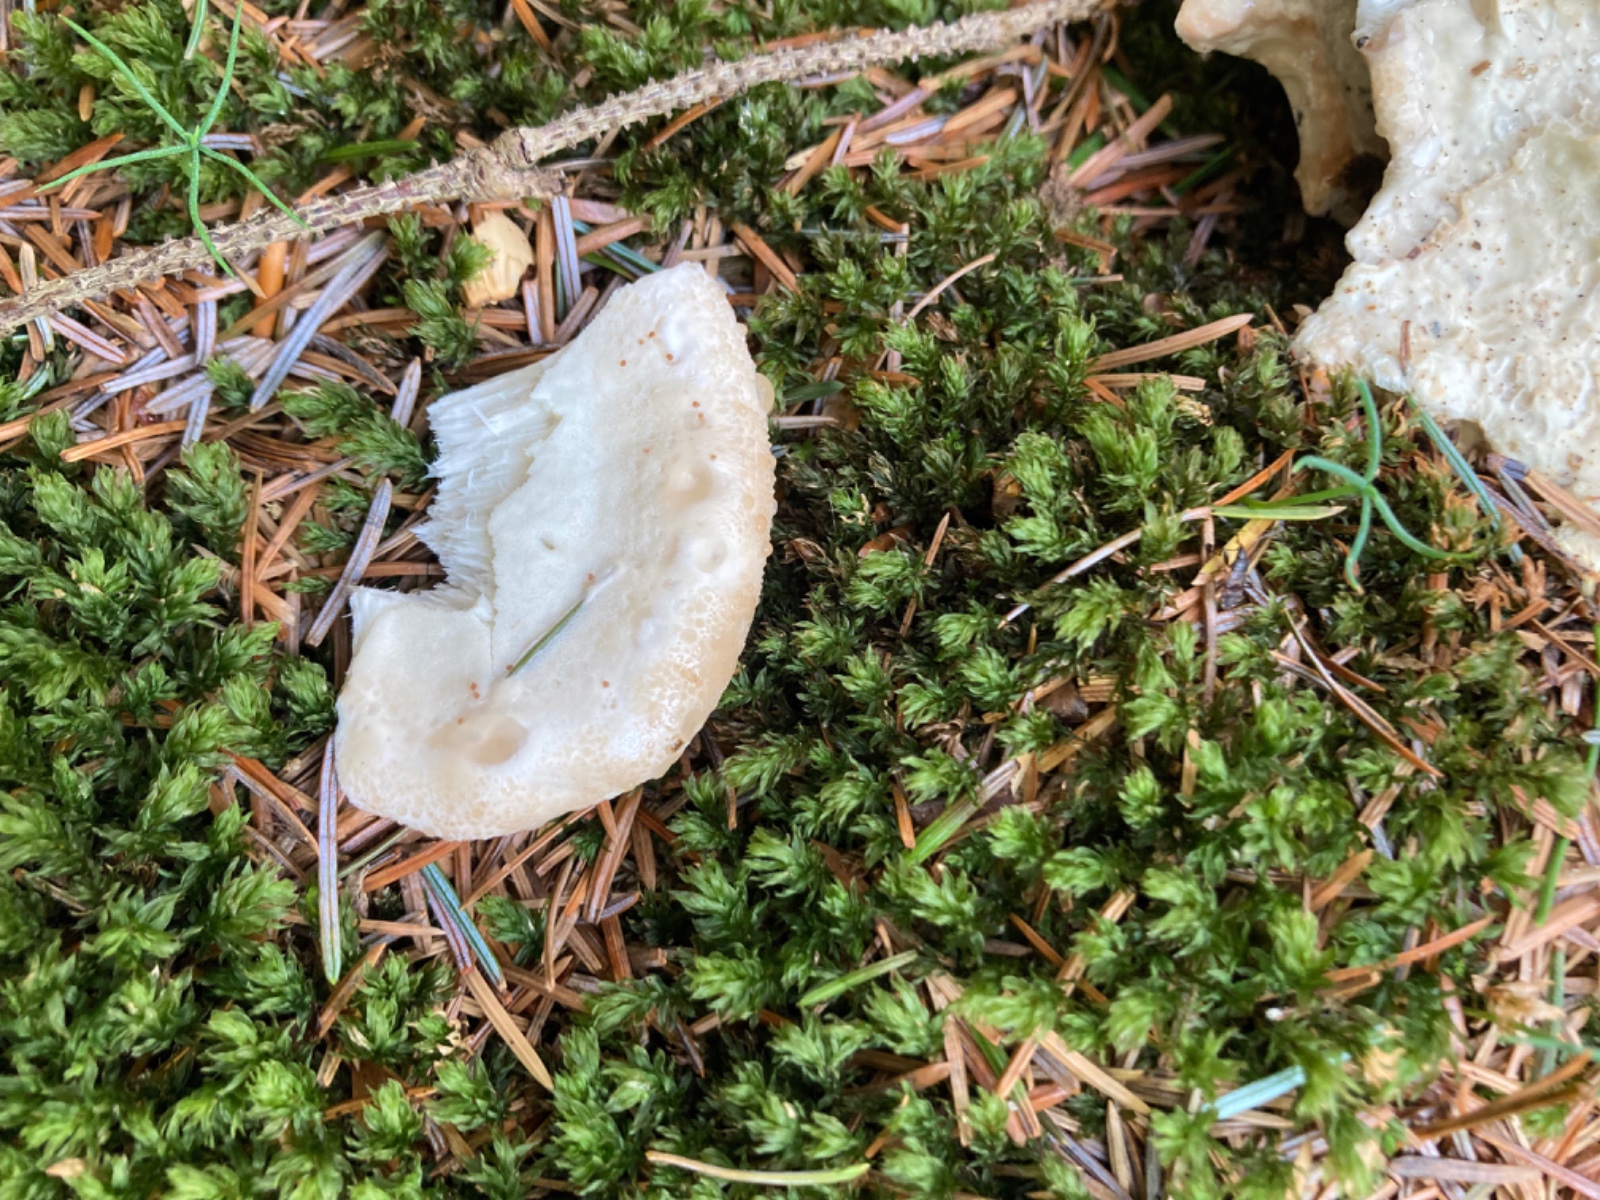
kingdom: Fungi
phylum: Basidiomycota
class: Agaricomycetes
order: Polyporales
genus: Calcipostia
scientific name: Calcipostia guttulata
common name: dråbe-kødporesvamp
